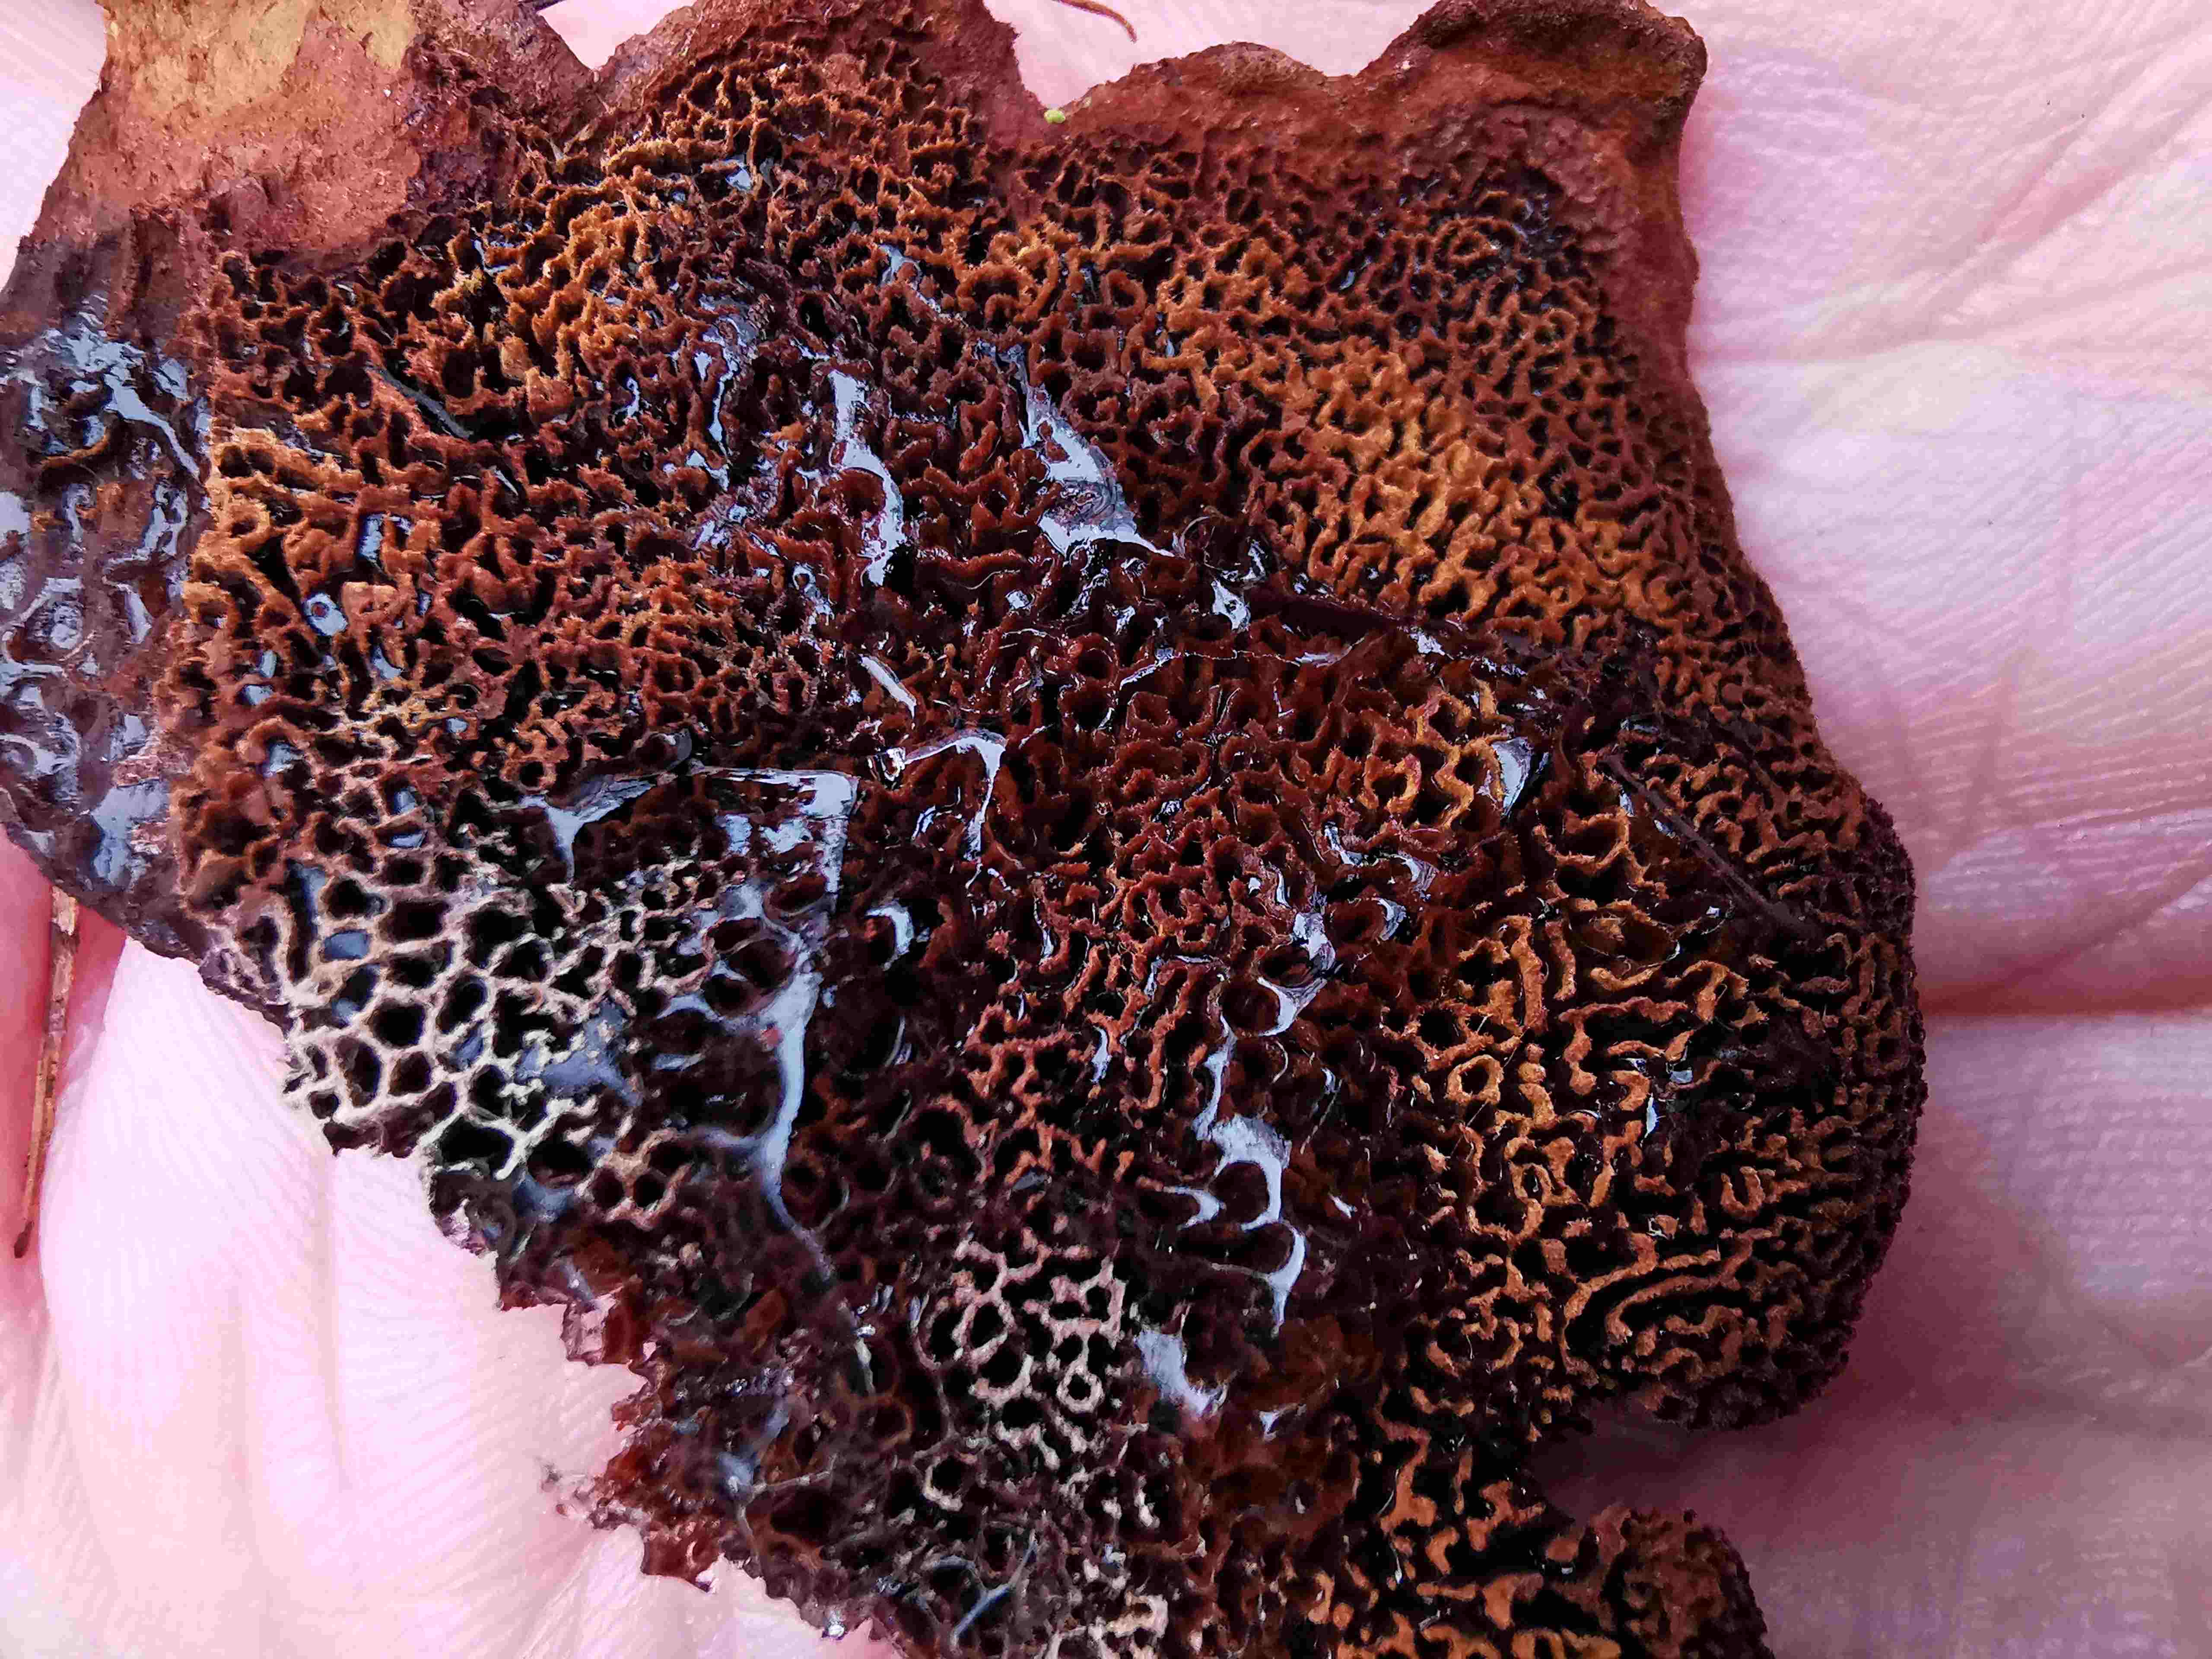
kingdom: Fungi
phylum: Basidiomycota
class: Agaricomycetes
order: Polyporales
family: Laetiporaceae
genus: Phaeolus
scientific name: Phaeolus schweinitzii
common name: brunporesvamp
